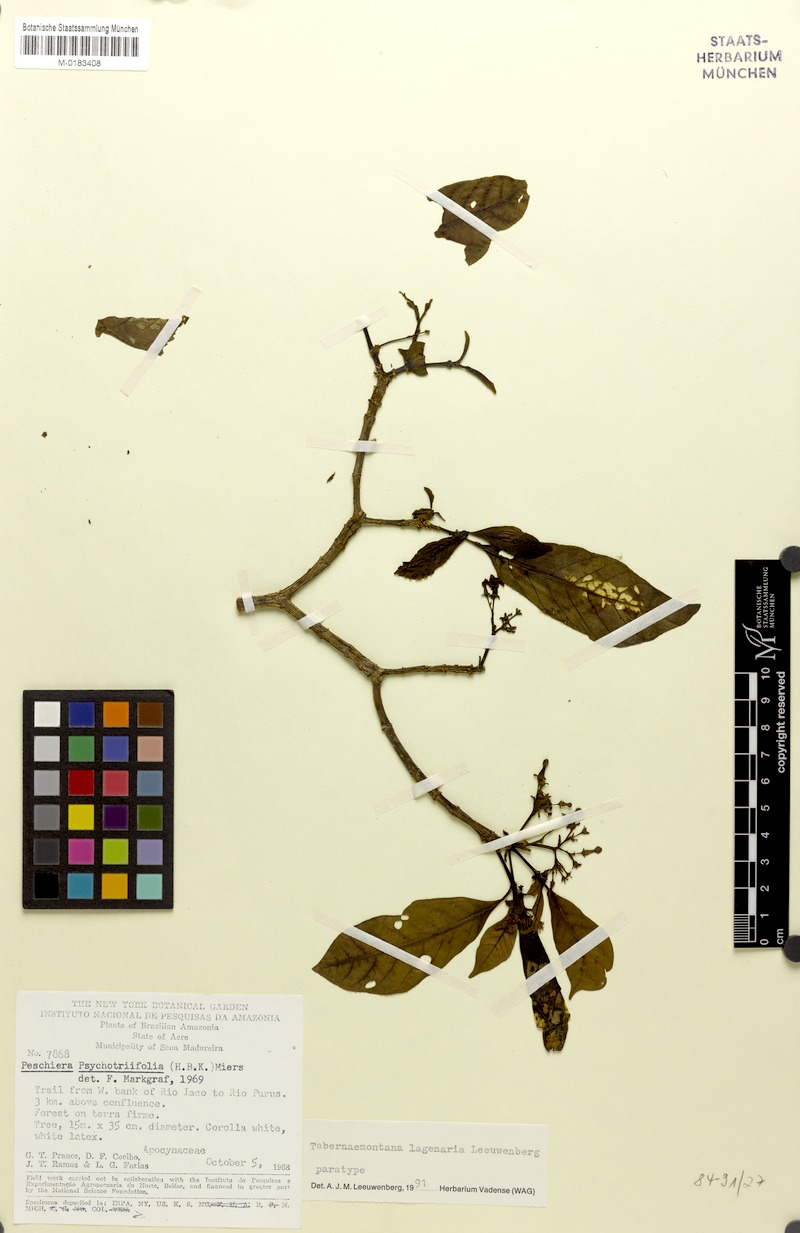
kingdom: Plantae
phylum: Tracheophyta
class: Magnoliopsida
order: Gentianales
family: Apocynaceae
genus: Tabernaemontana
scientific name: Tabernaemontana lagenaria
